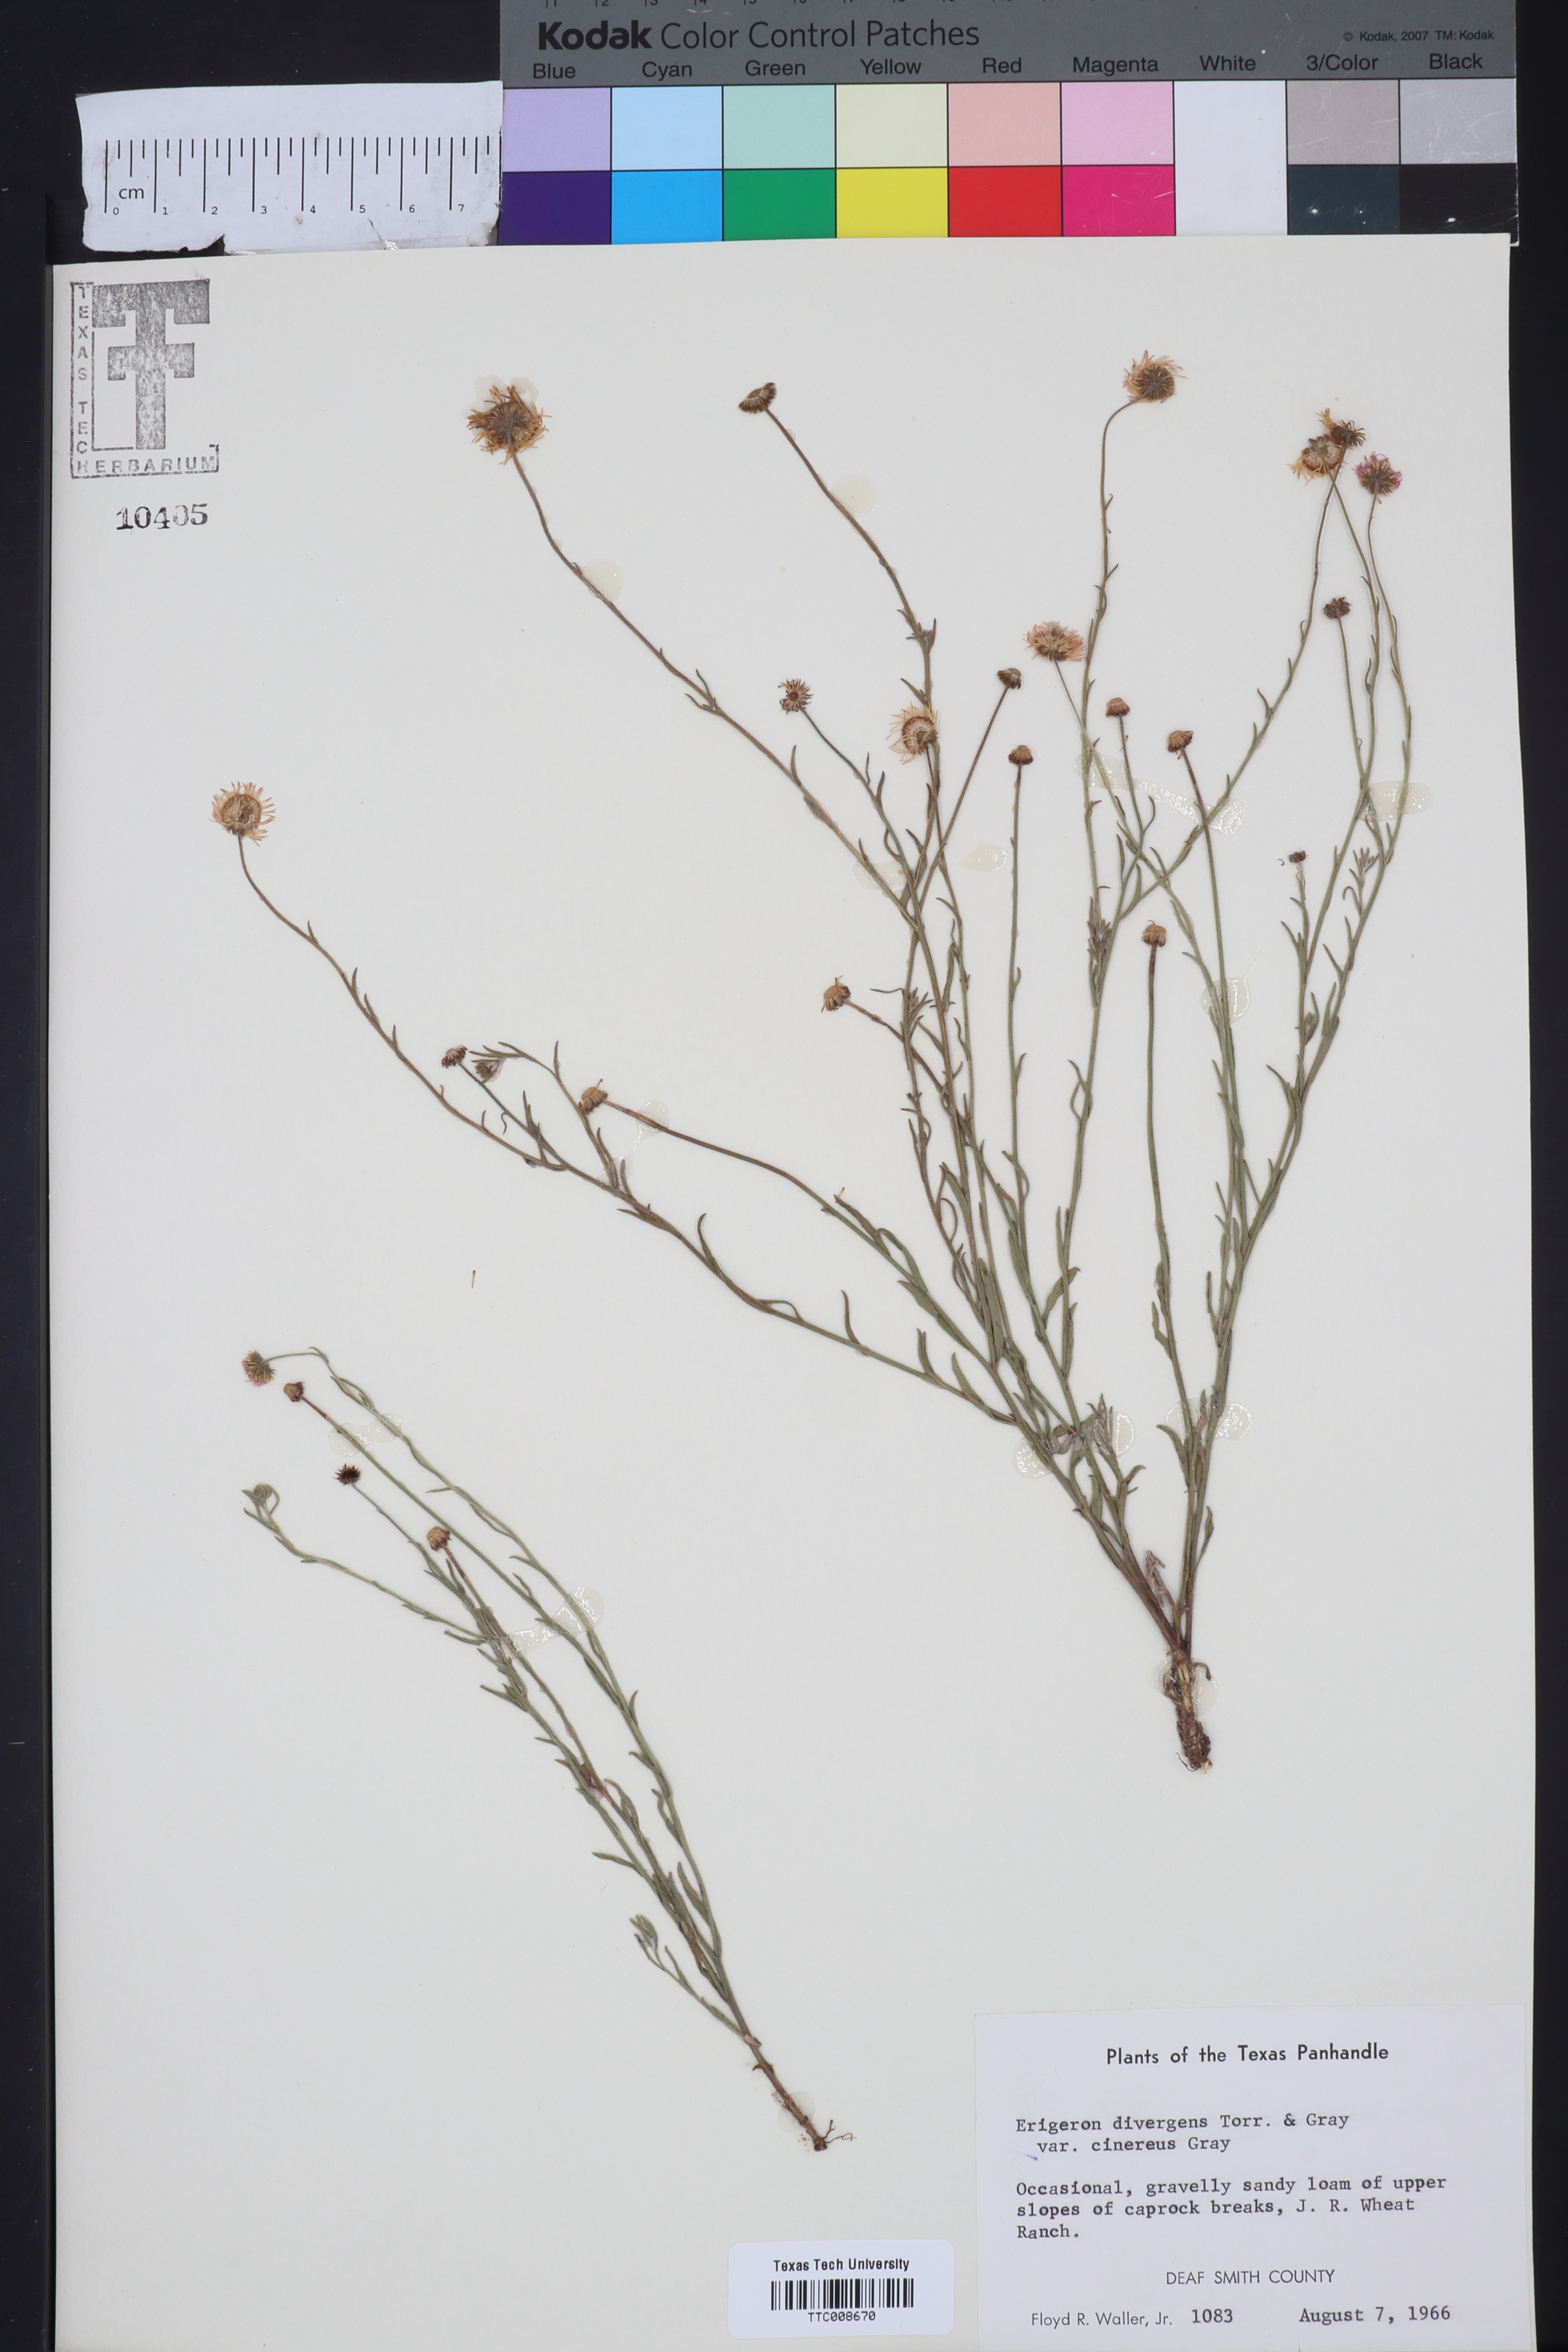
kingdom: Plantae
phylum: Tracheophyta
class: Magnoliopsida
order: Asterales
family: Asteraceae
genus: Erigeron
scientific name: Erigeron tracyi
